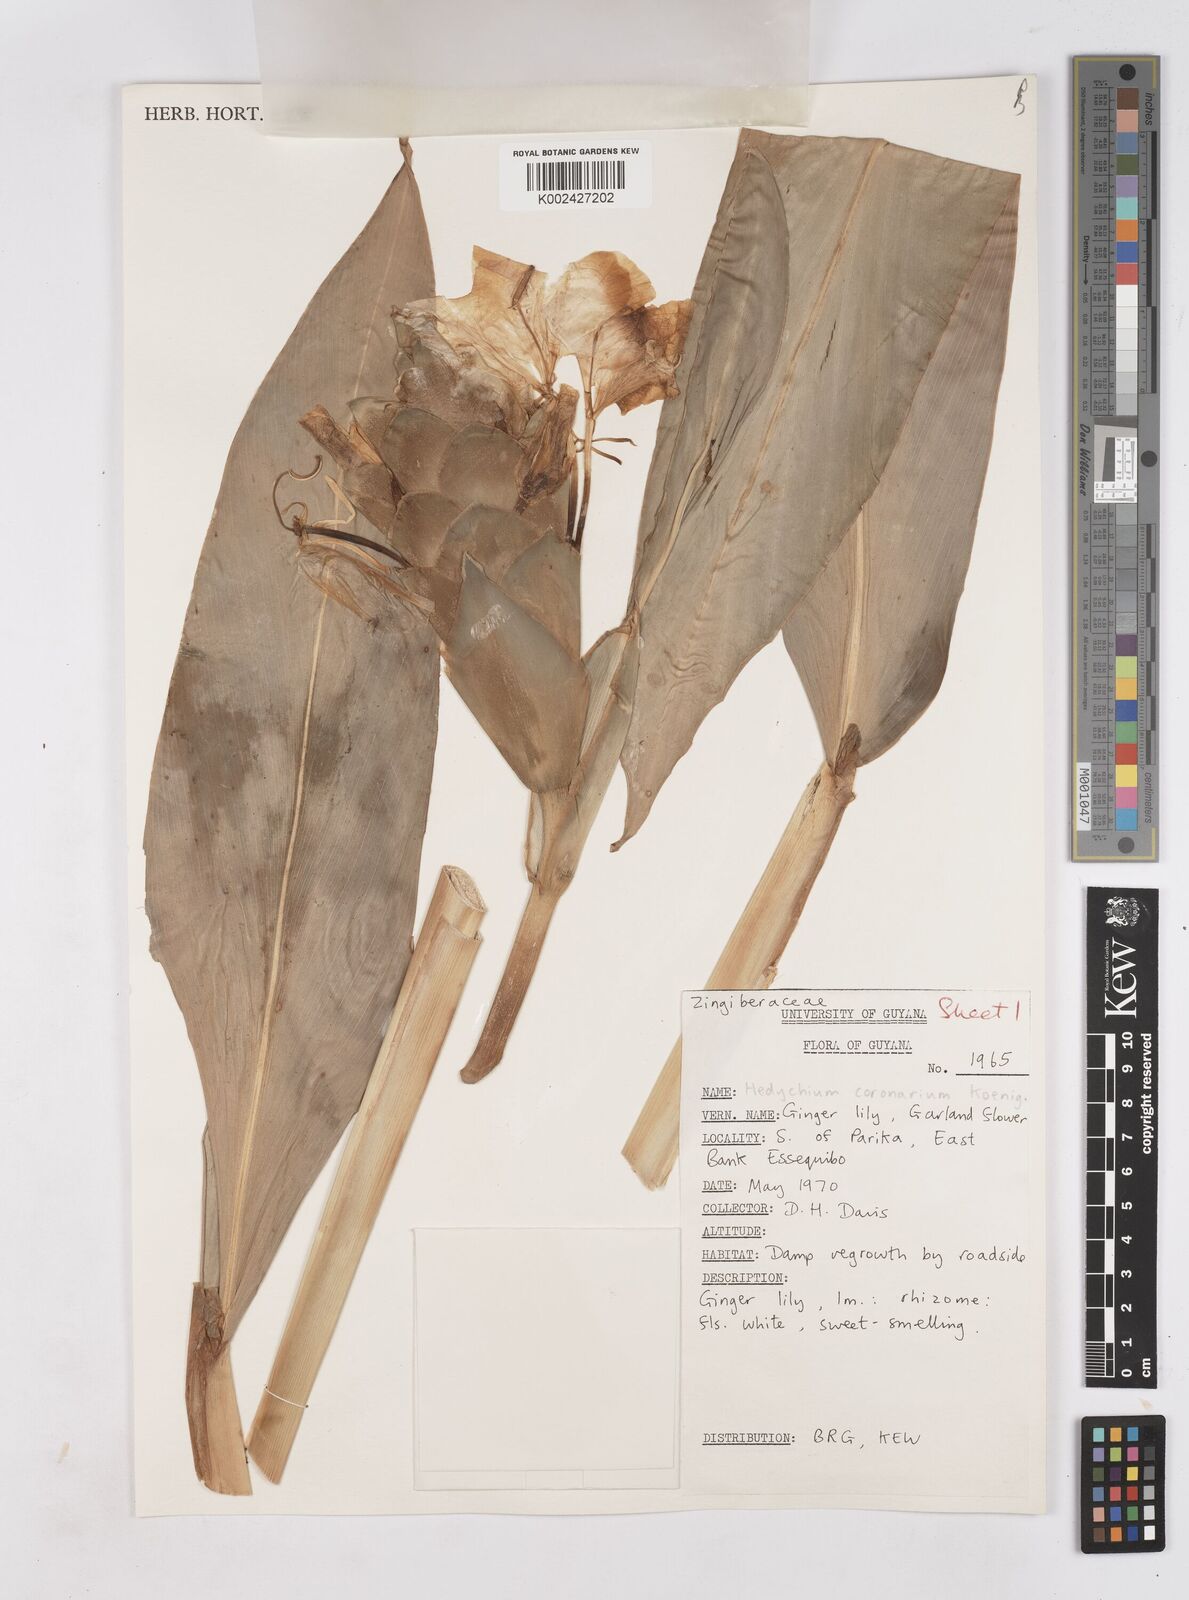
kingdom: Plantae
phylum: Tracheophyta
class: Liliopsida
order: Zingiberales
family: Zingiberaceae
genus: Hedychium
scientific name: Hedychium coronarium
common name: White garland-lily
